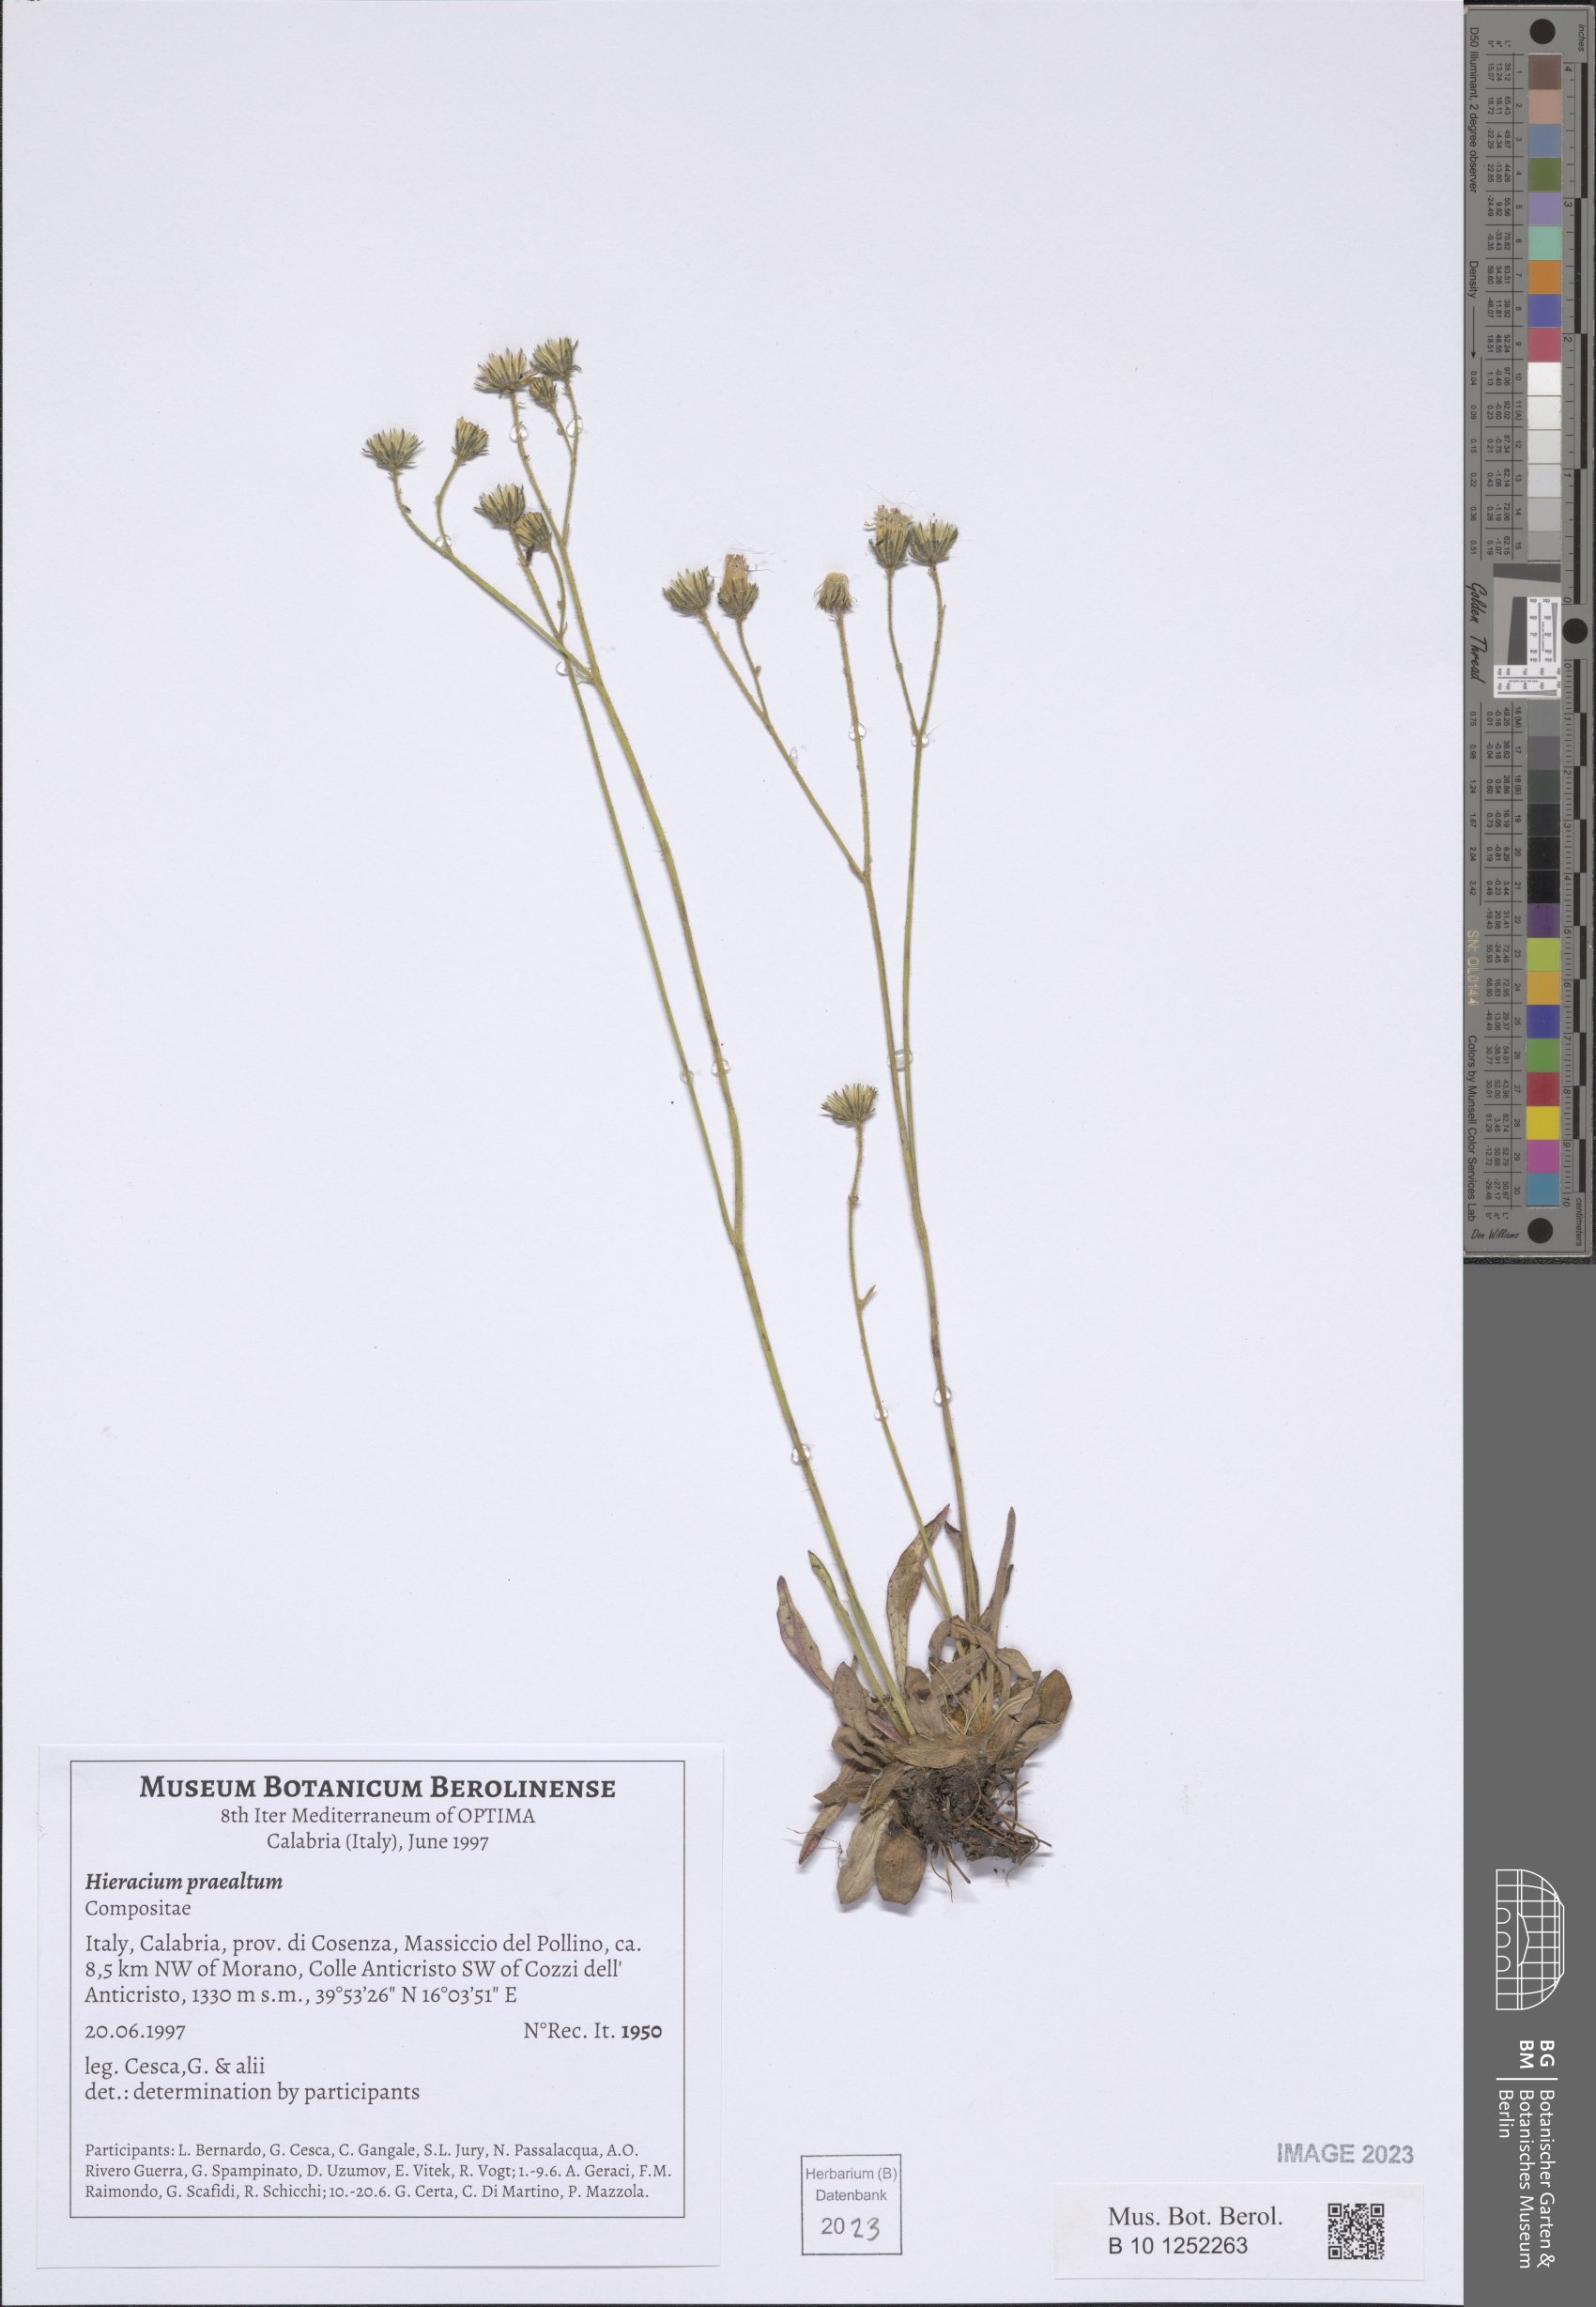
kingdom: Plantae
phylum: Tracheophyta
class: Magnoliopsida
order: Asterales
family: Asteraceae
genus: Pilosella
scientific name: Pilosella piloselloides
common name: Glaucous king-devil
